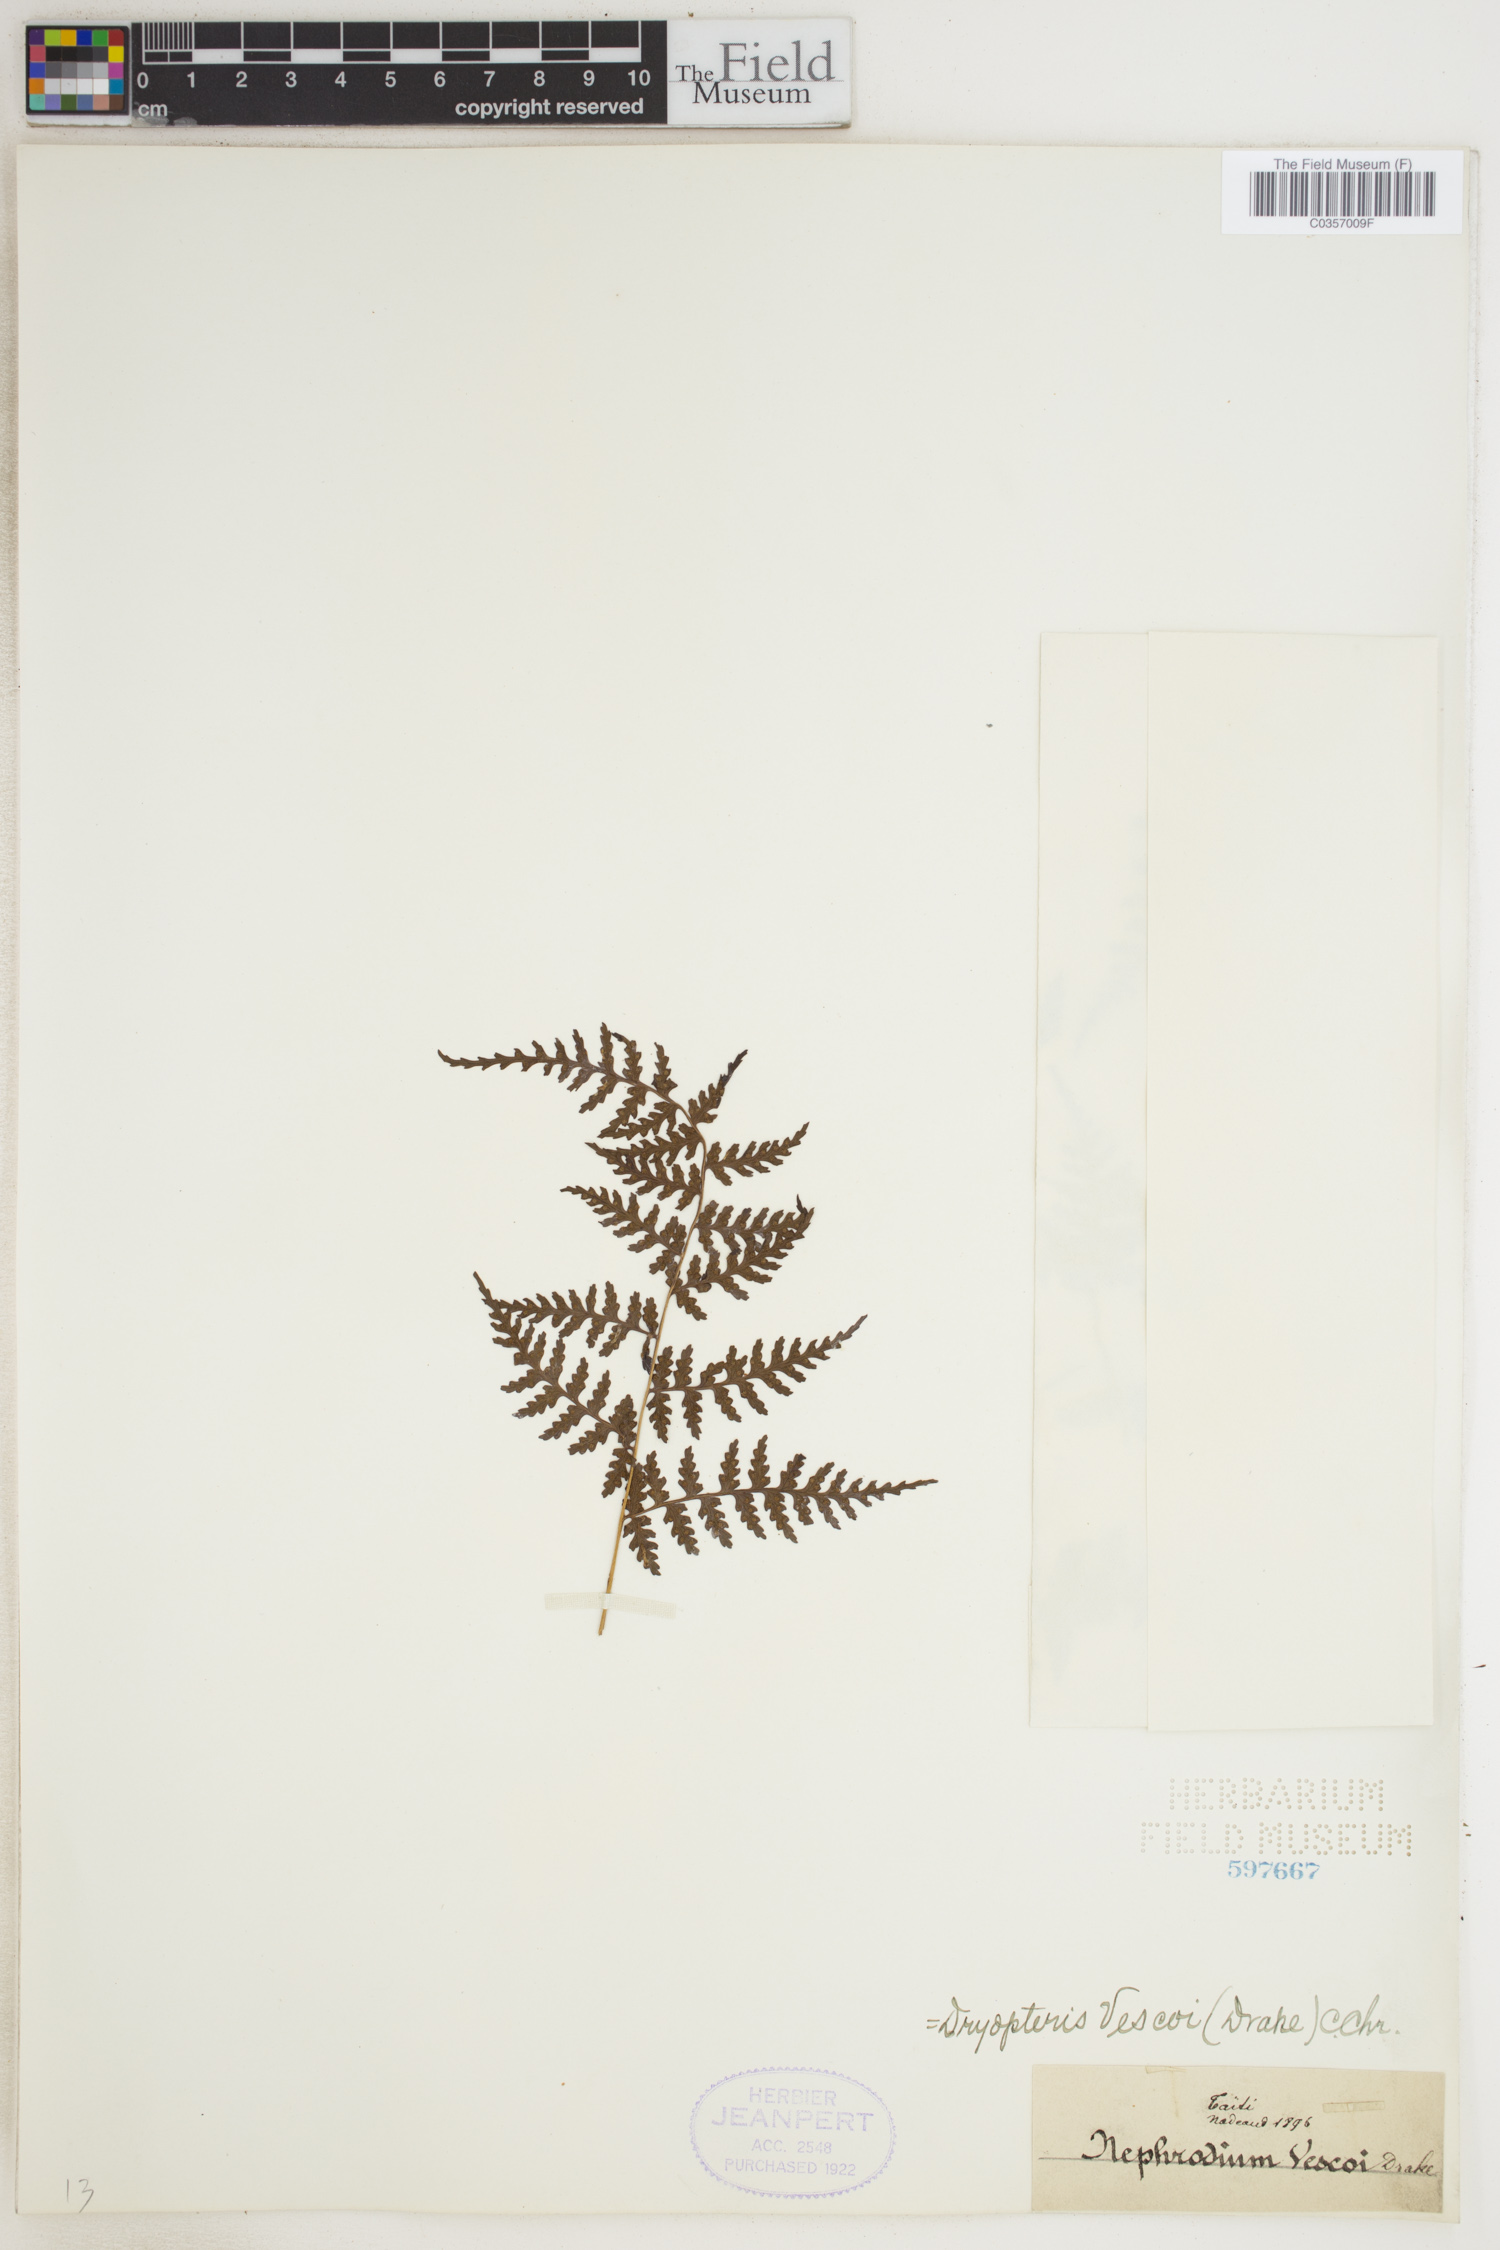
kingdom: Plantae
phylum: Tracheophyta
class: Polypodiopsida
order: Polypodiales
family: Dryopteridaceae
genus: Dryopteris
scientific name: Dryopteris vescoi
